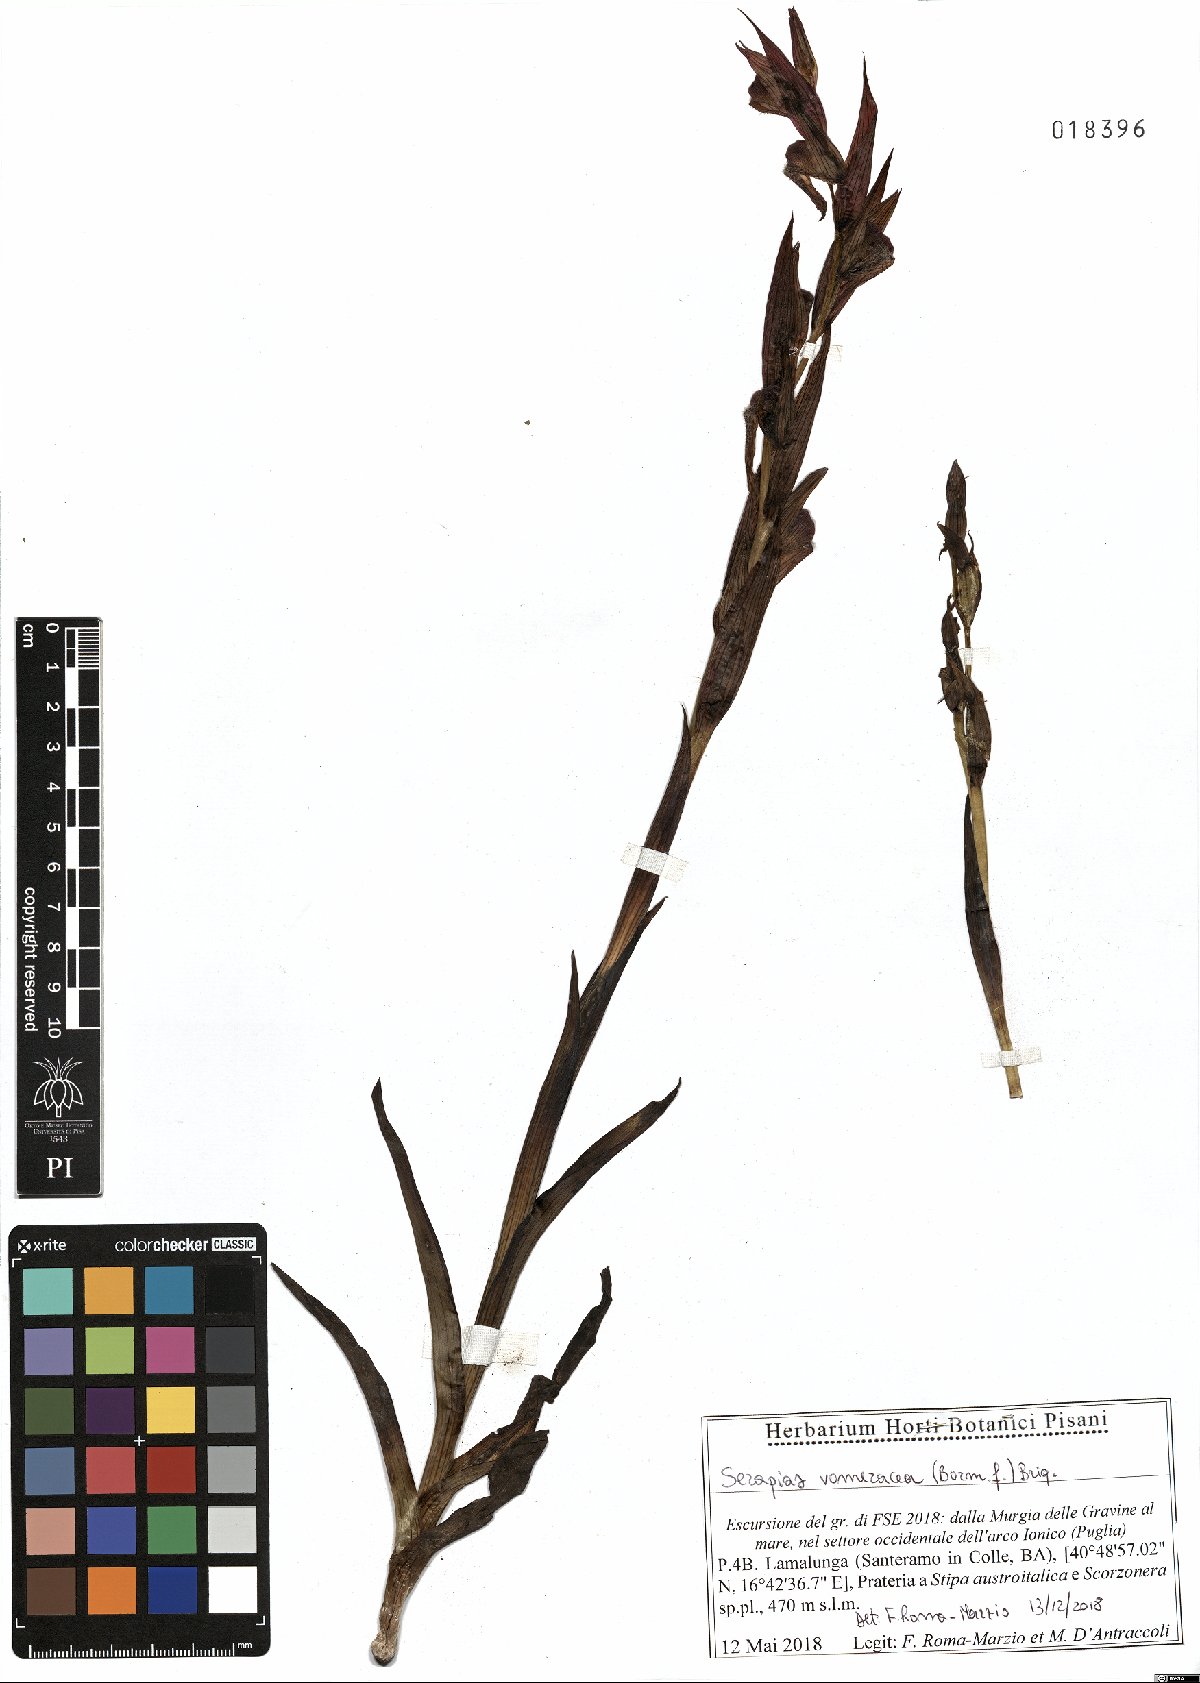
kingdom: Plantae
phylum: Tracheophyta
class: Liliopsida
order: Asparagales
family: Orchidaceae
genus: Serapias
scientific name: Serapias vomeracea
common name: Long-lipped tongue-orchid
